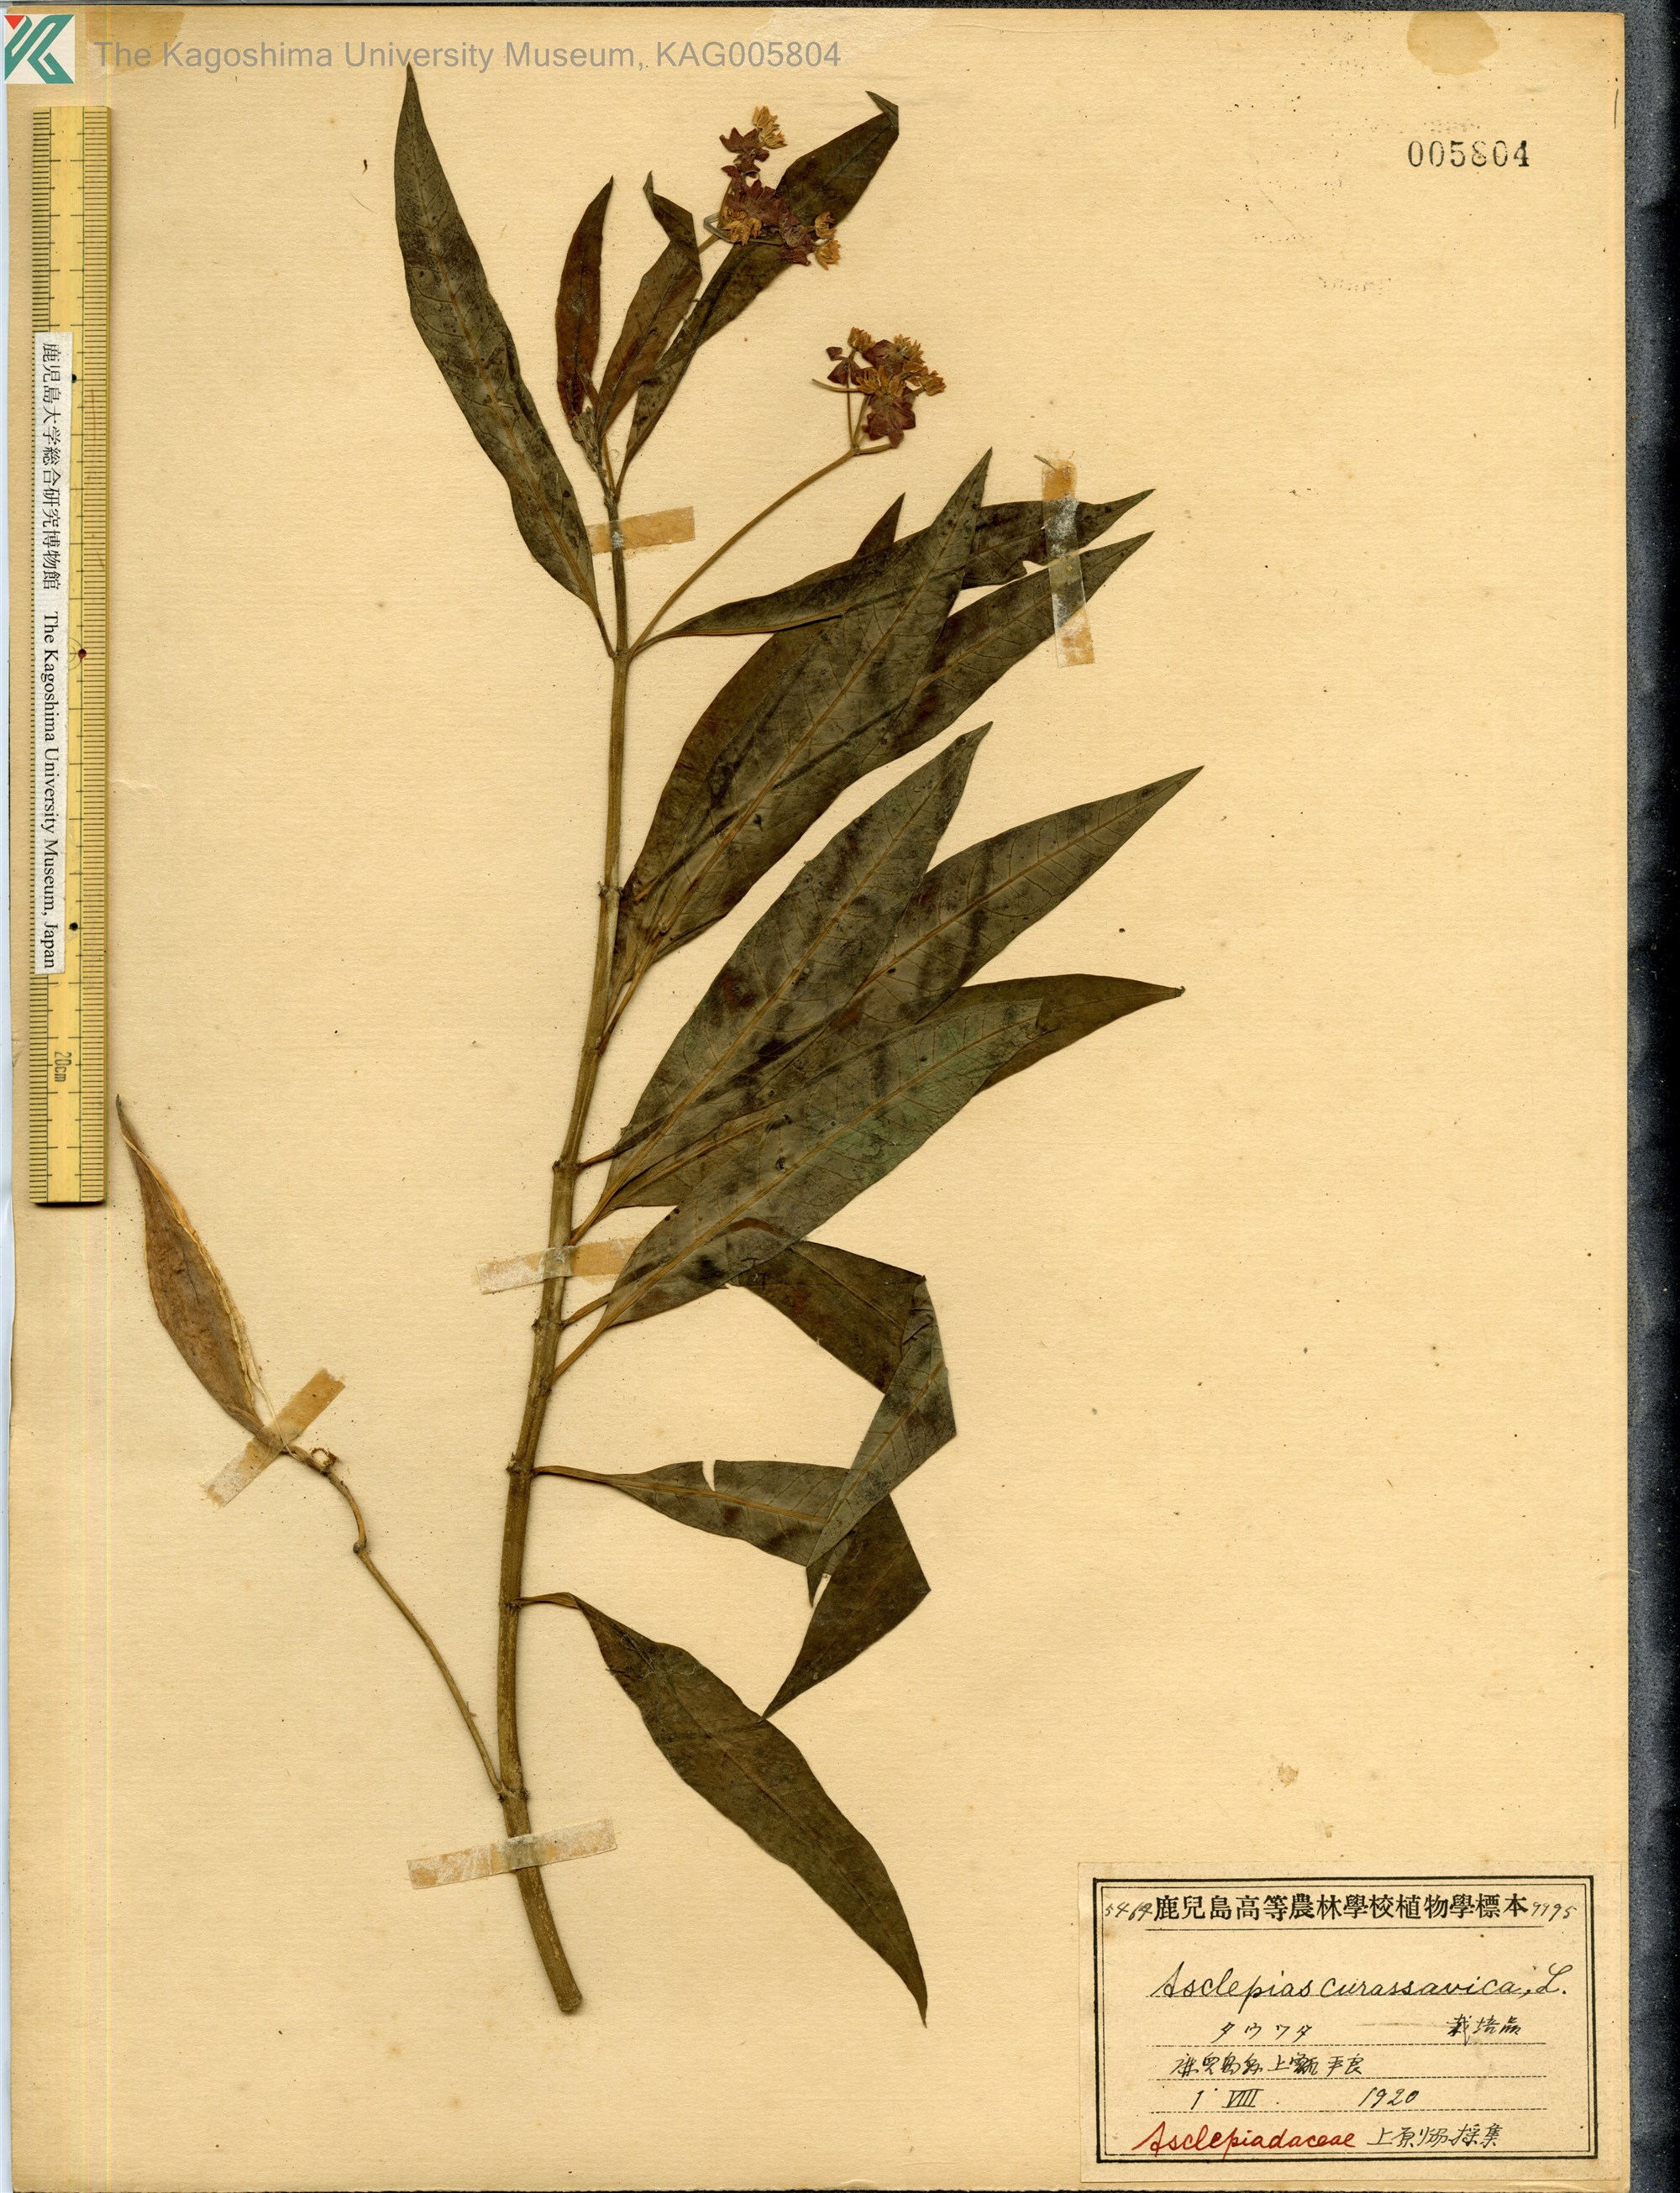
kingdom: Plantae
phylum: Tracheophyta
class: Magnoliopsida
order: Gentianales
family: Apocynaceae
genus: Asclepias
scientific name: Asclepias
